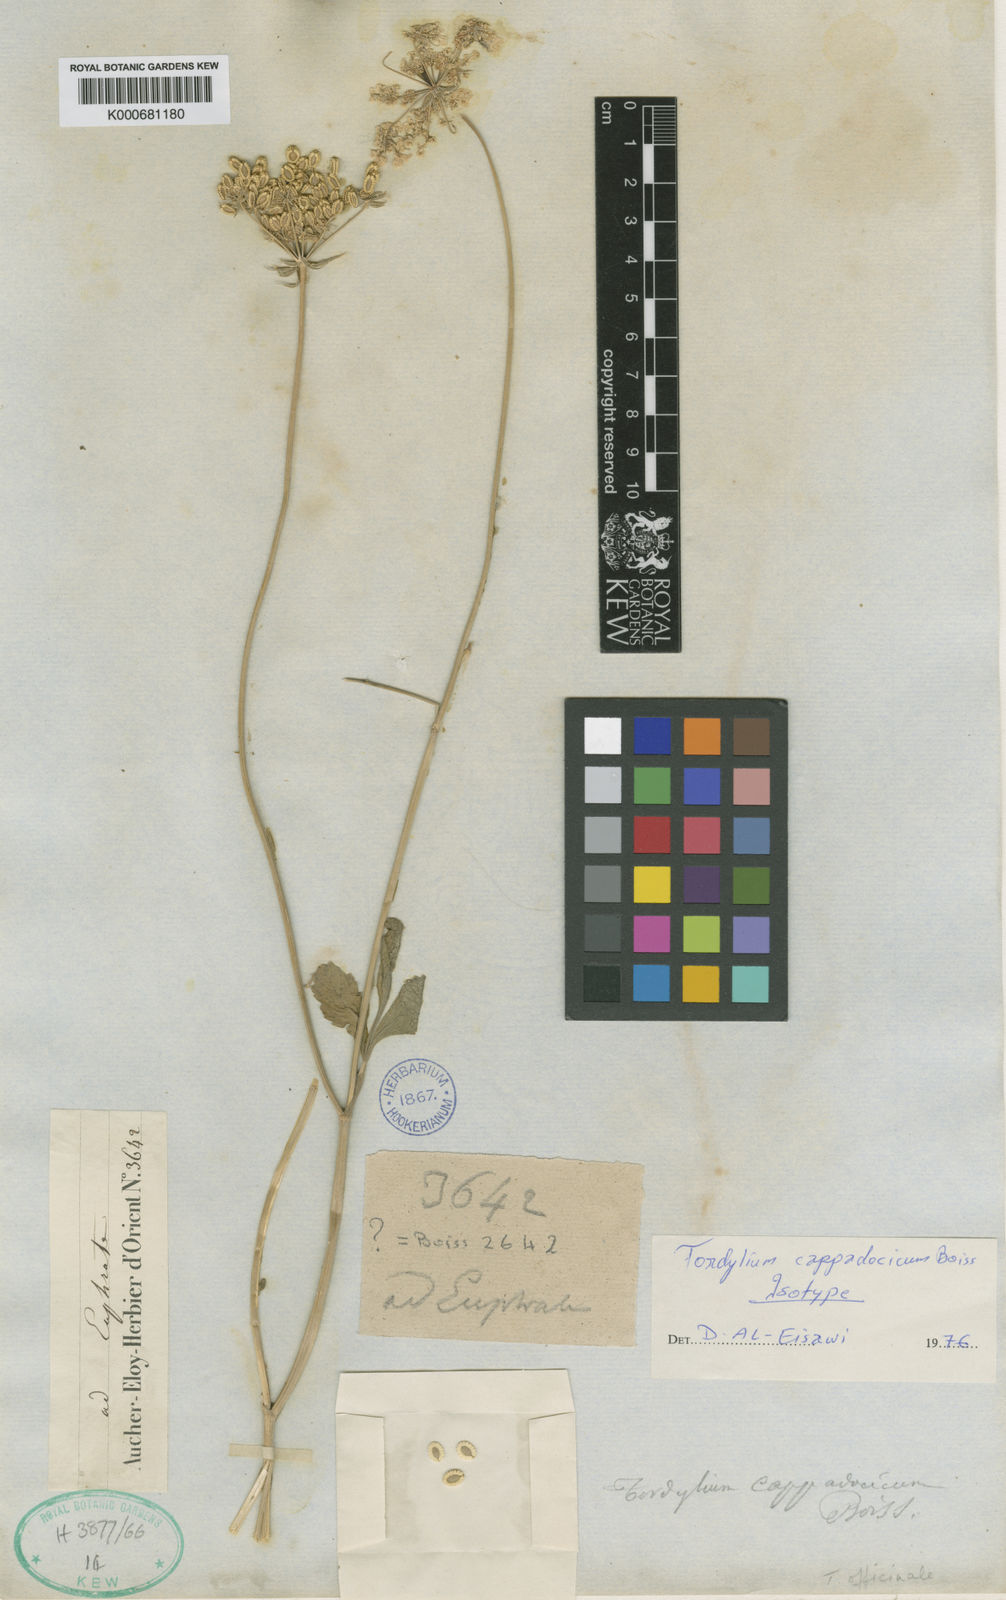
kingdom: Plantae
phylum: Tracheophyta
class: Magnoliopsida
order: Apiales
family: Apiaceae
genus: Tordylium
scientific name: Tordylium cappadocicum
